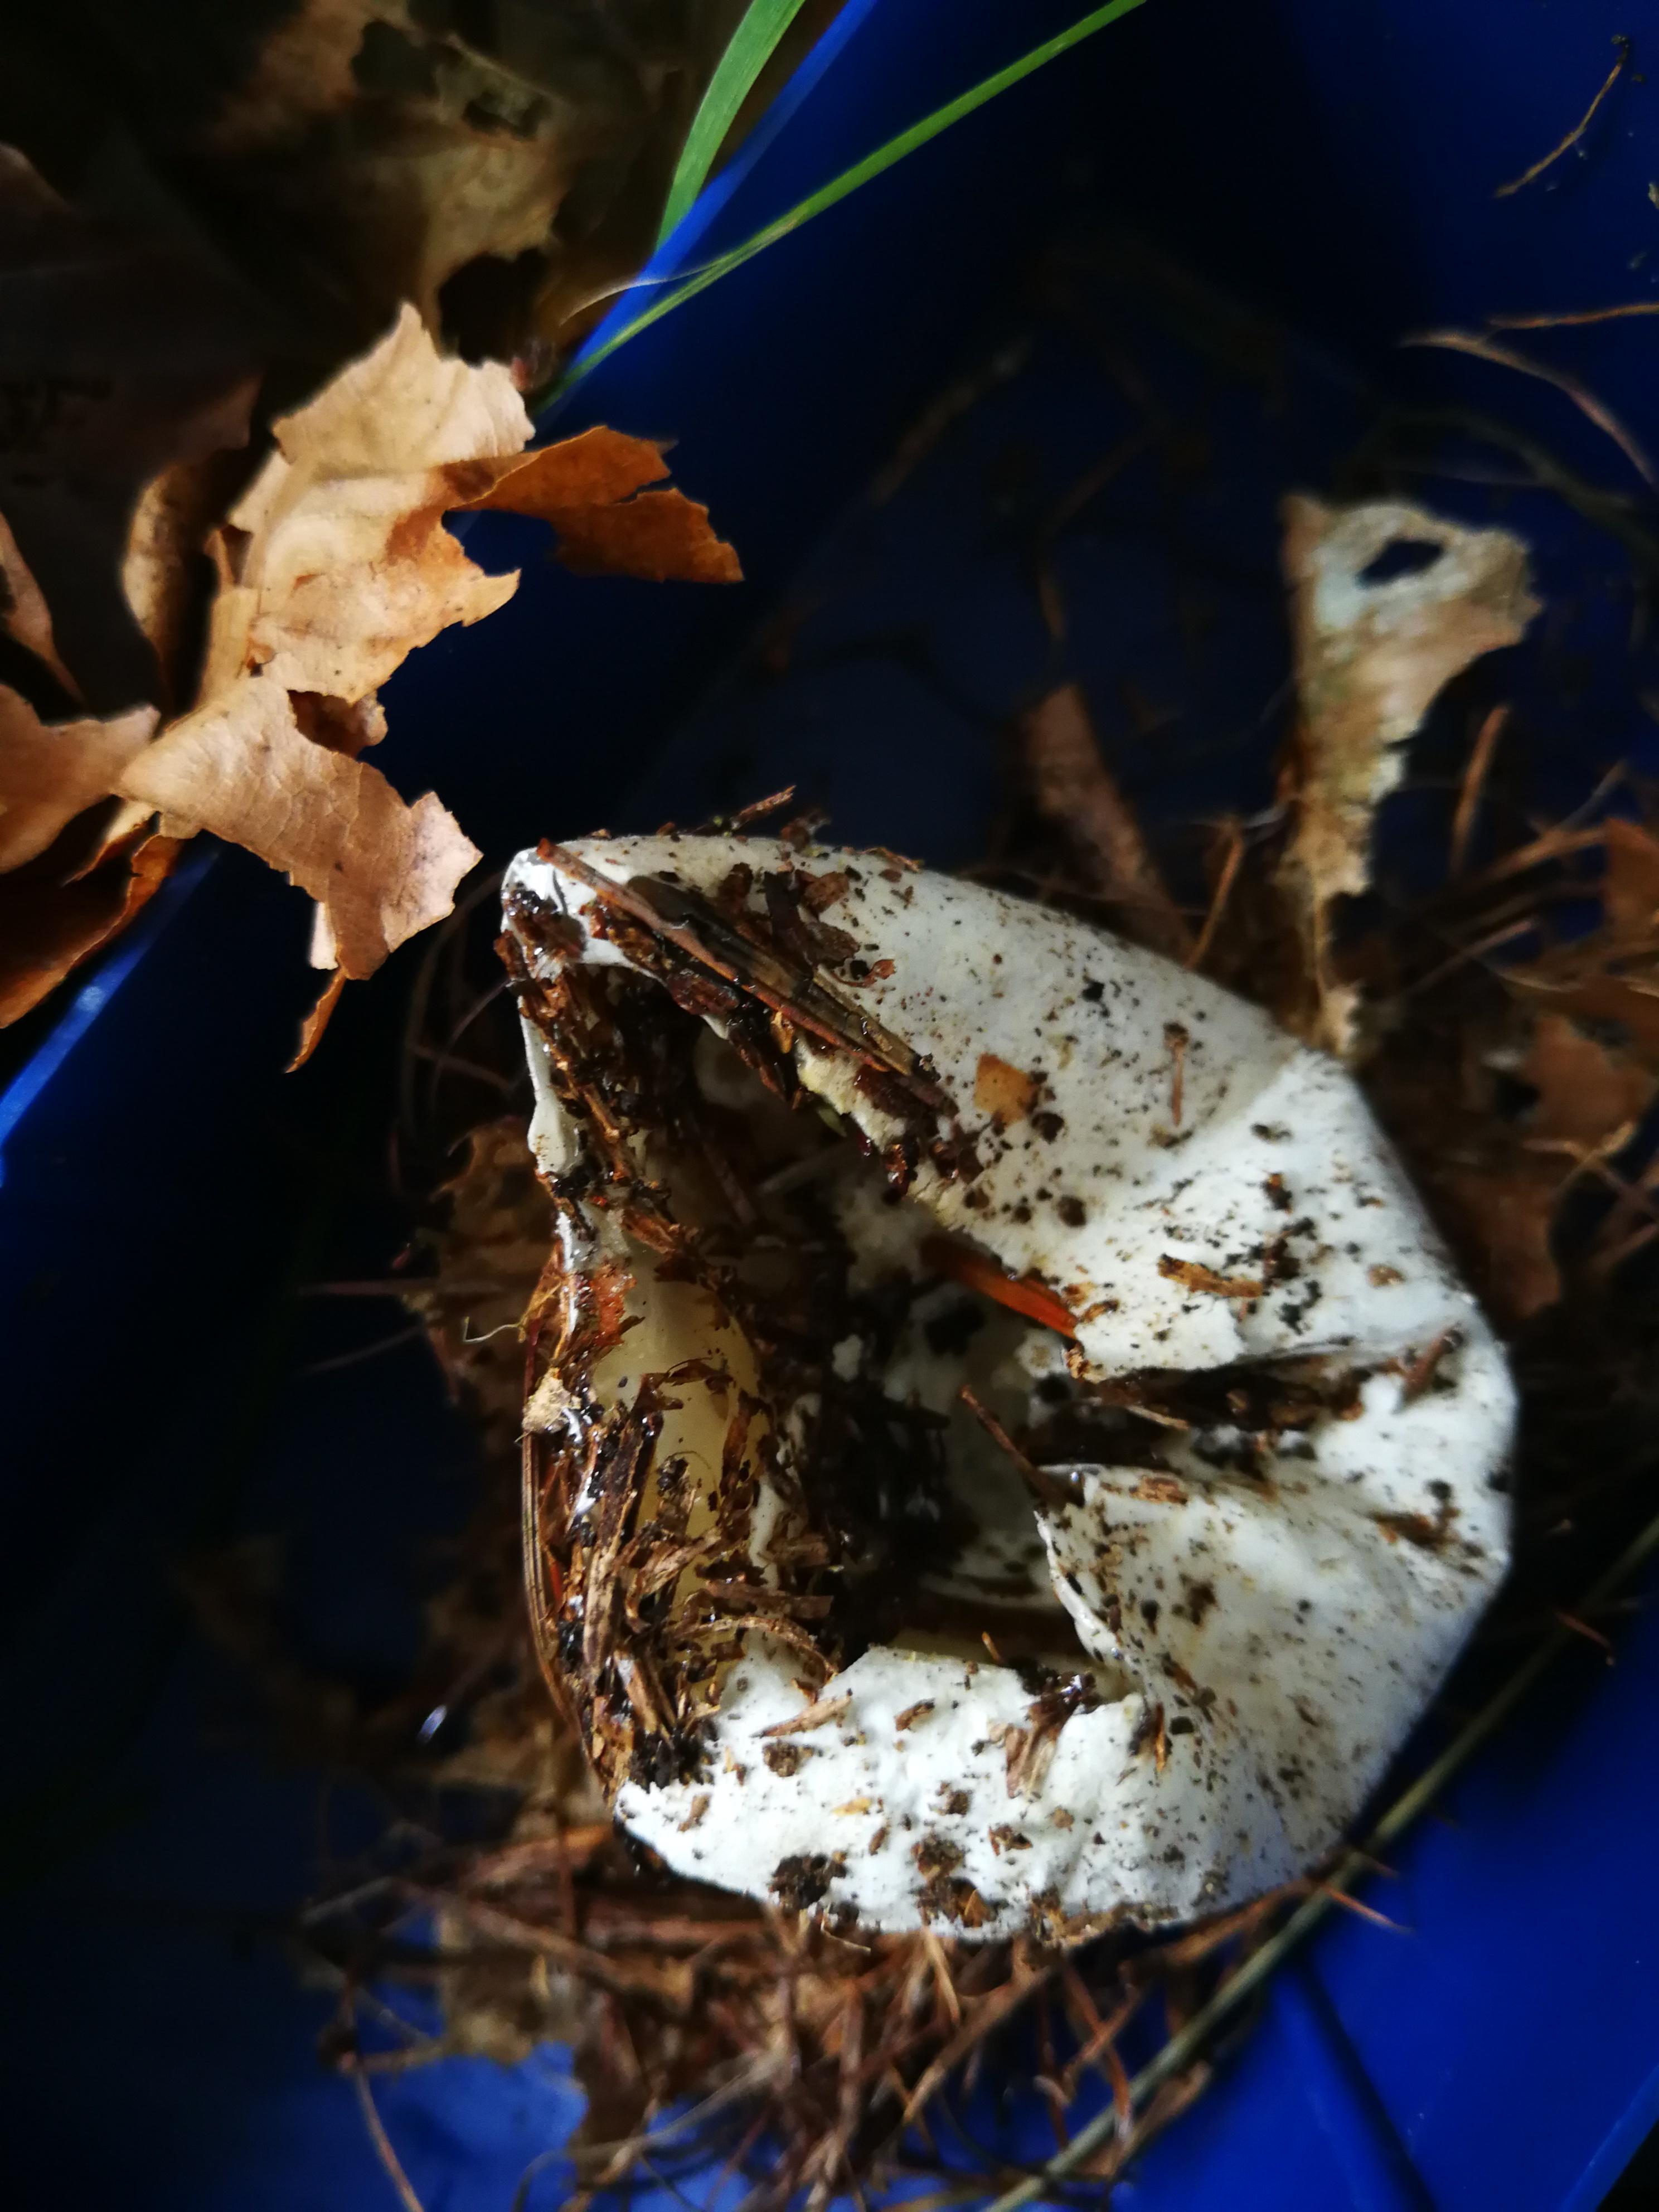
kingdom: Fungi
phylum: Basidiomycota
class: Agaricomycetes
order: Phallales
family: Phallaceae
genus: Phallus
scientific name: Phallus impudicus
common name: almindelig stinksvamp
